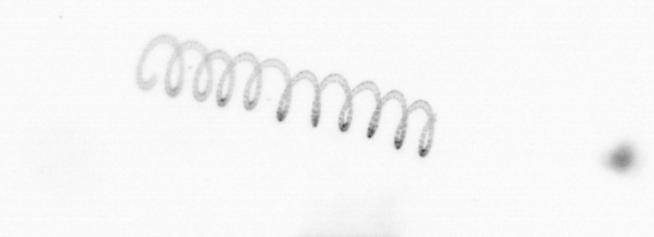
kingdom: Chromista
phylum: Ochrophyta
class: Bacillariophyceae
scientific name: Bacillariophyceae
